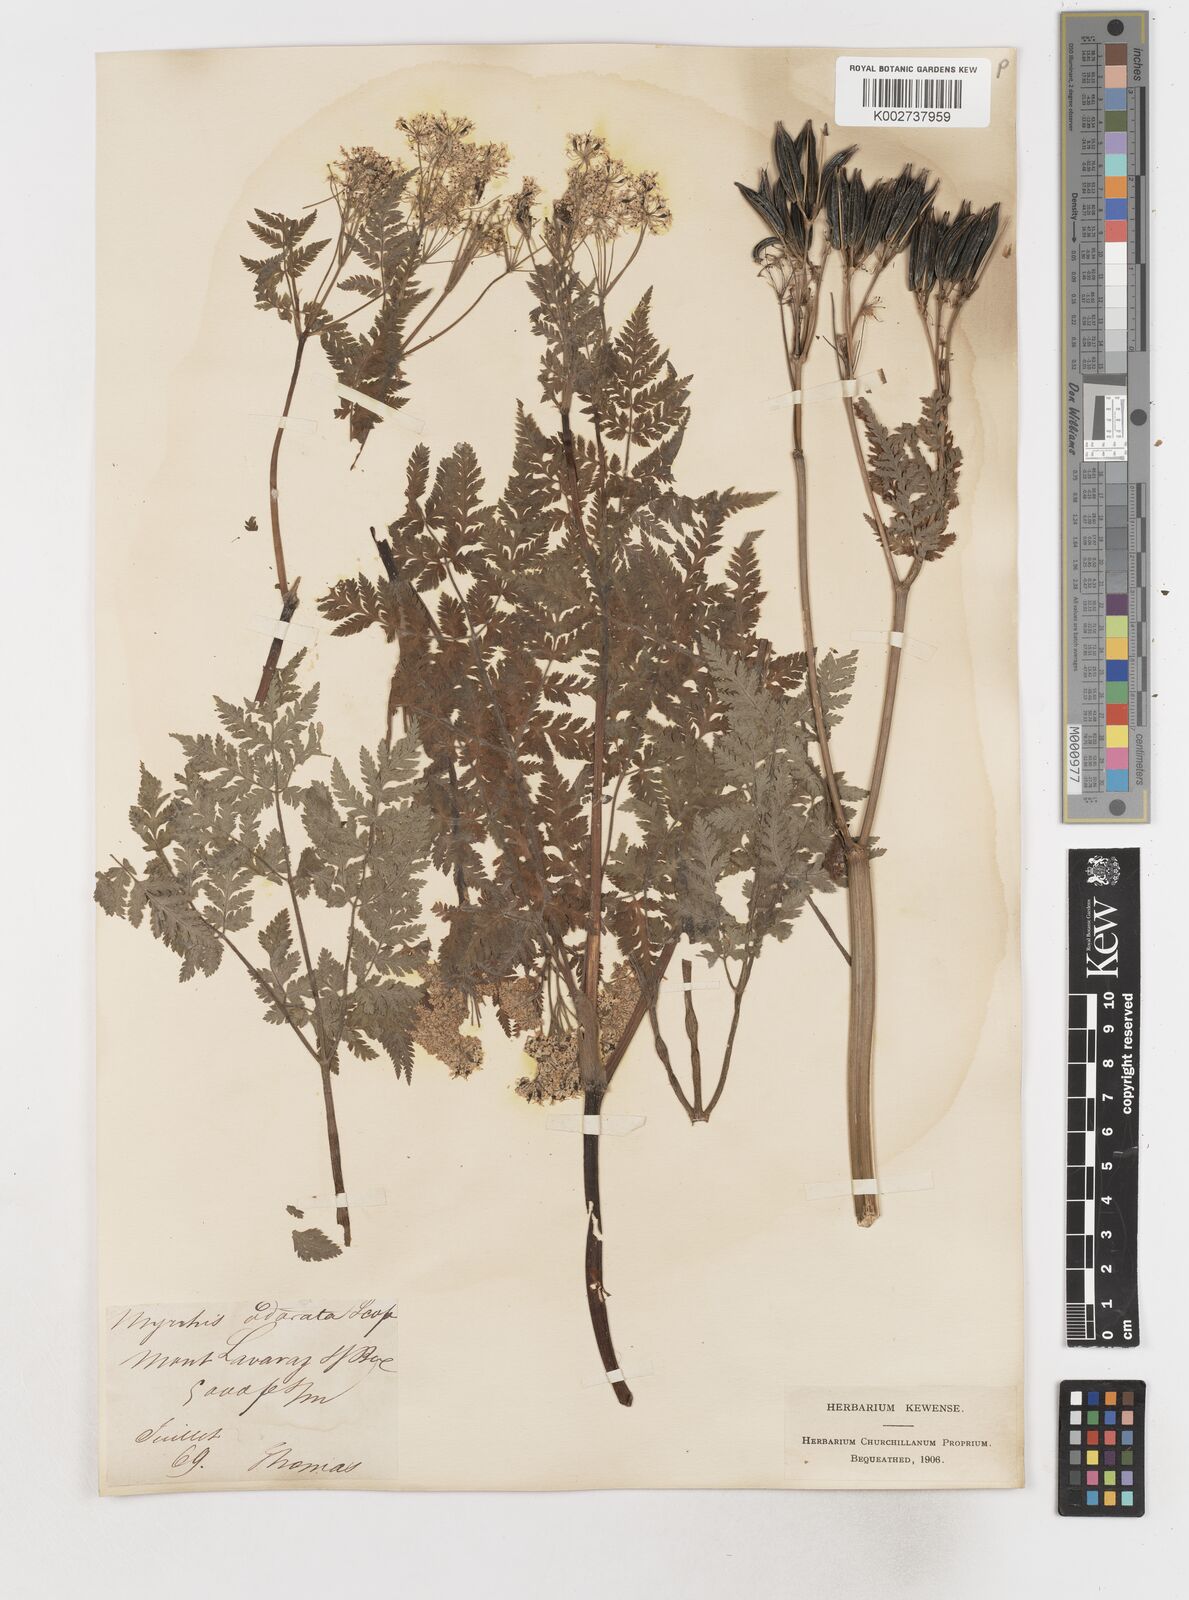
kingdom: Plantae
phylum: Tracheophyta
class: Magnoliopsida
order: Apiales
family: Apiaceae
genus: Myrrhis
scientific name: Myrrhis odorata
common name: Sweet cicely
